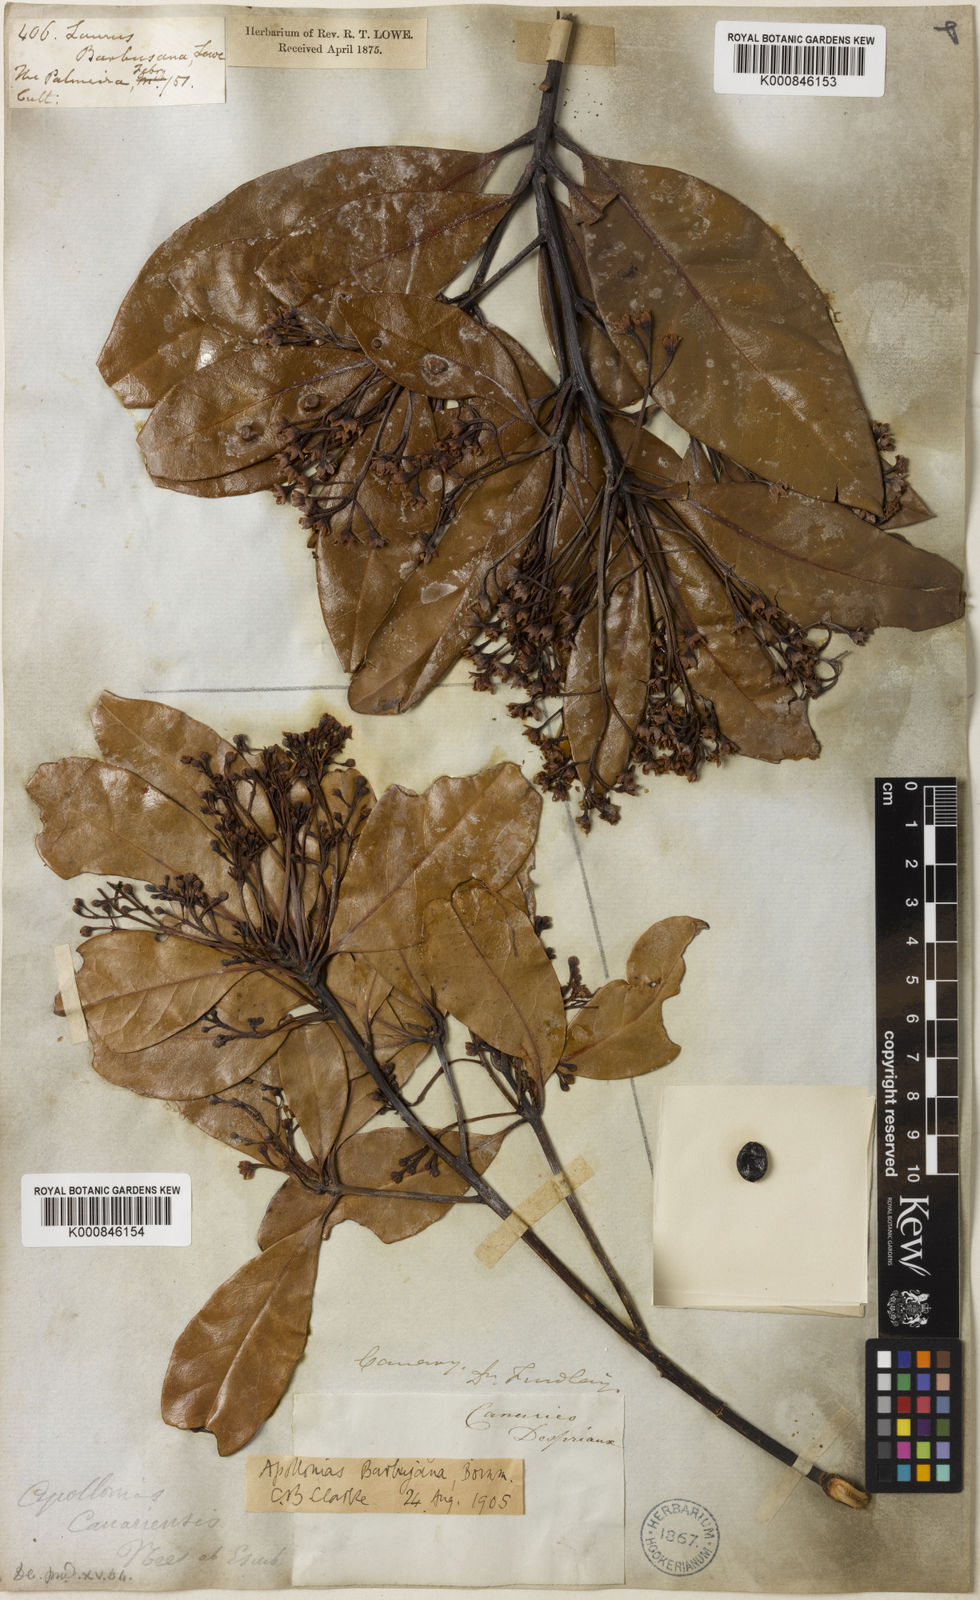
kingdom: Plantae
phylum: Tracheophyta
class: Magnoliopsida
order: Laurales
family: Lauraceae
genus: Apollonias
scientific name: Apollonias barbujana
